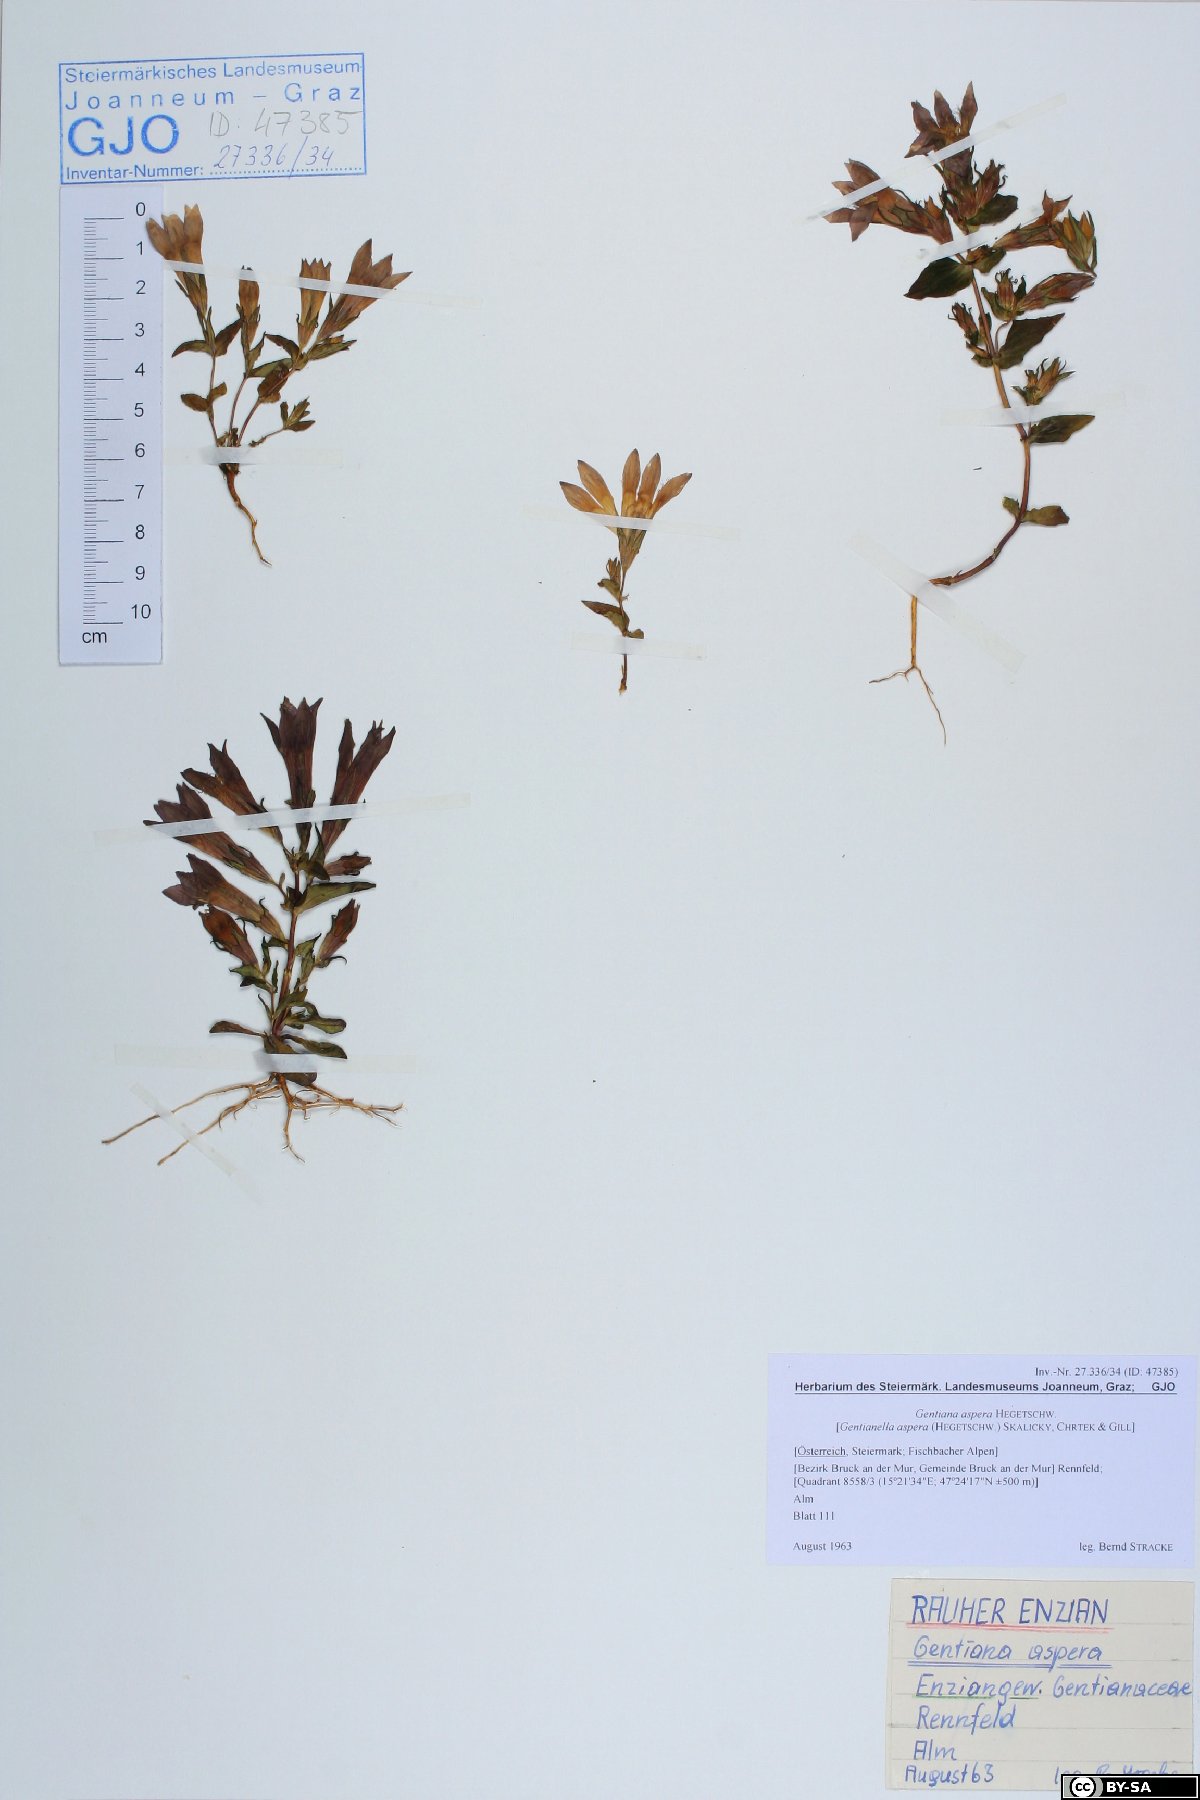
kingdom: Plantae
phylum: Tracheophyta
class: Magnoliopsida
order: Gentianales
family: Gentianaceae
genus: Gentianella
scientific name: Gentianella rhaetica
